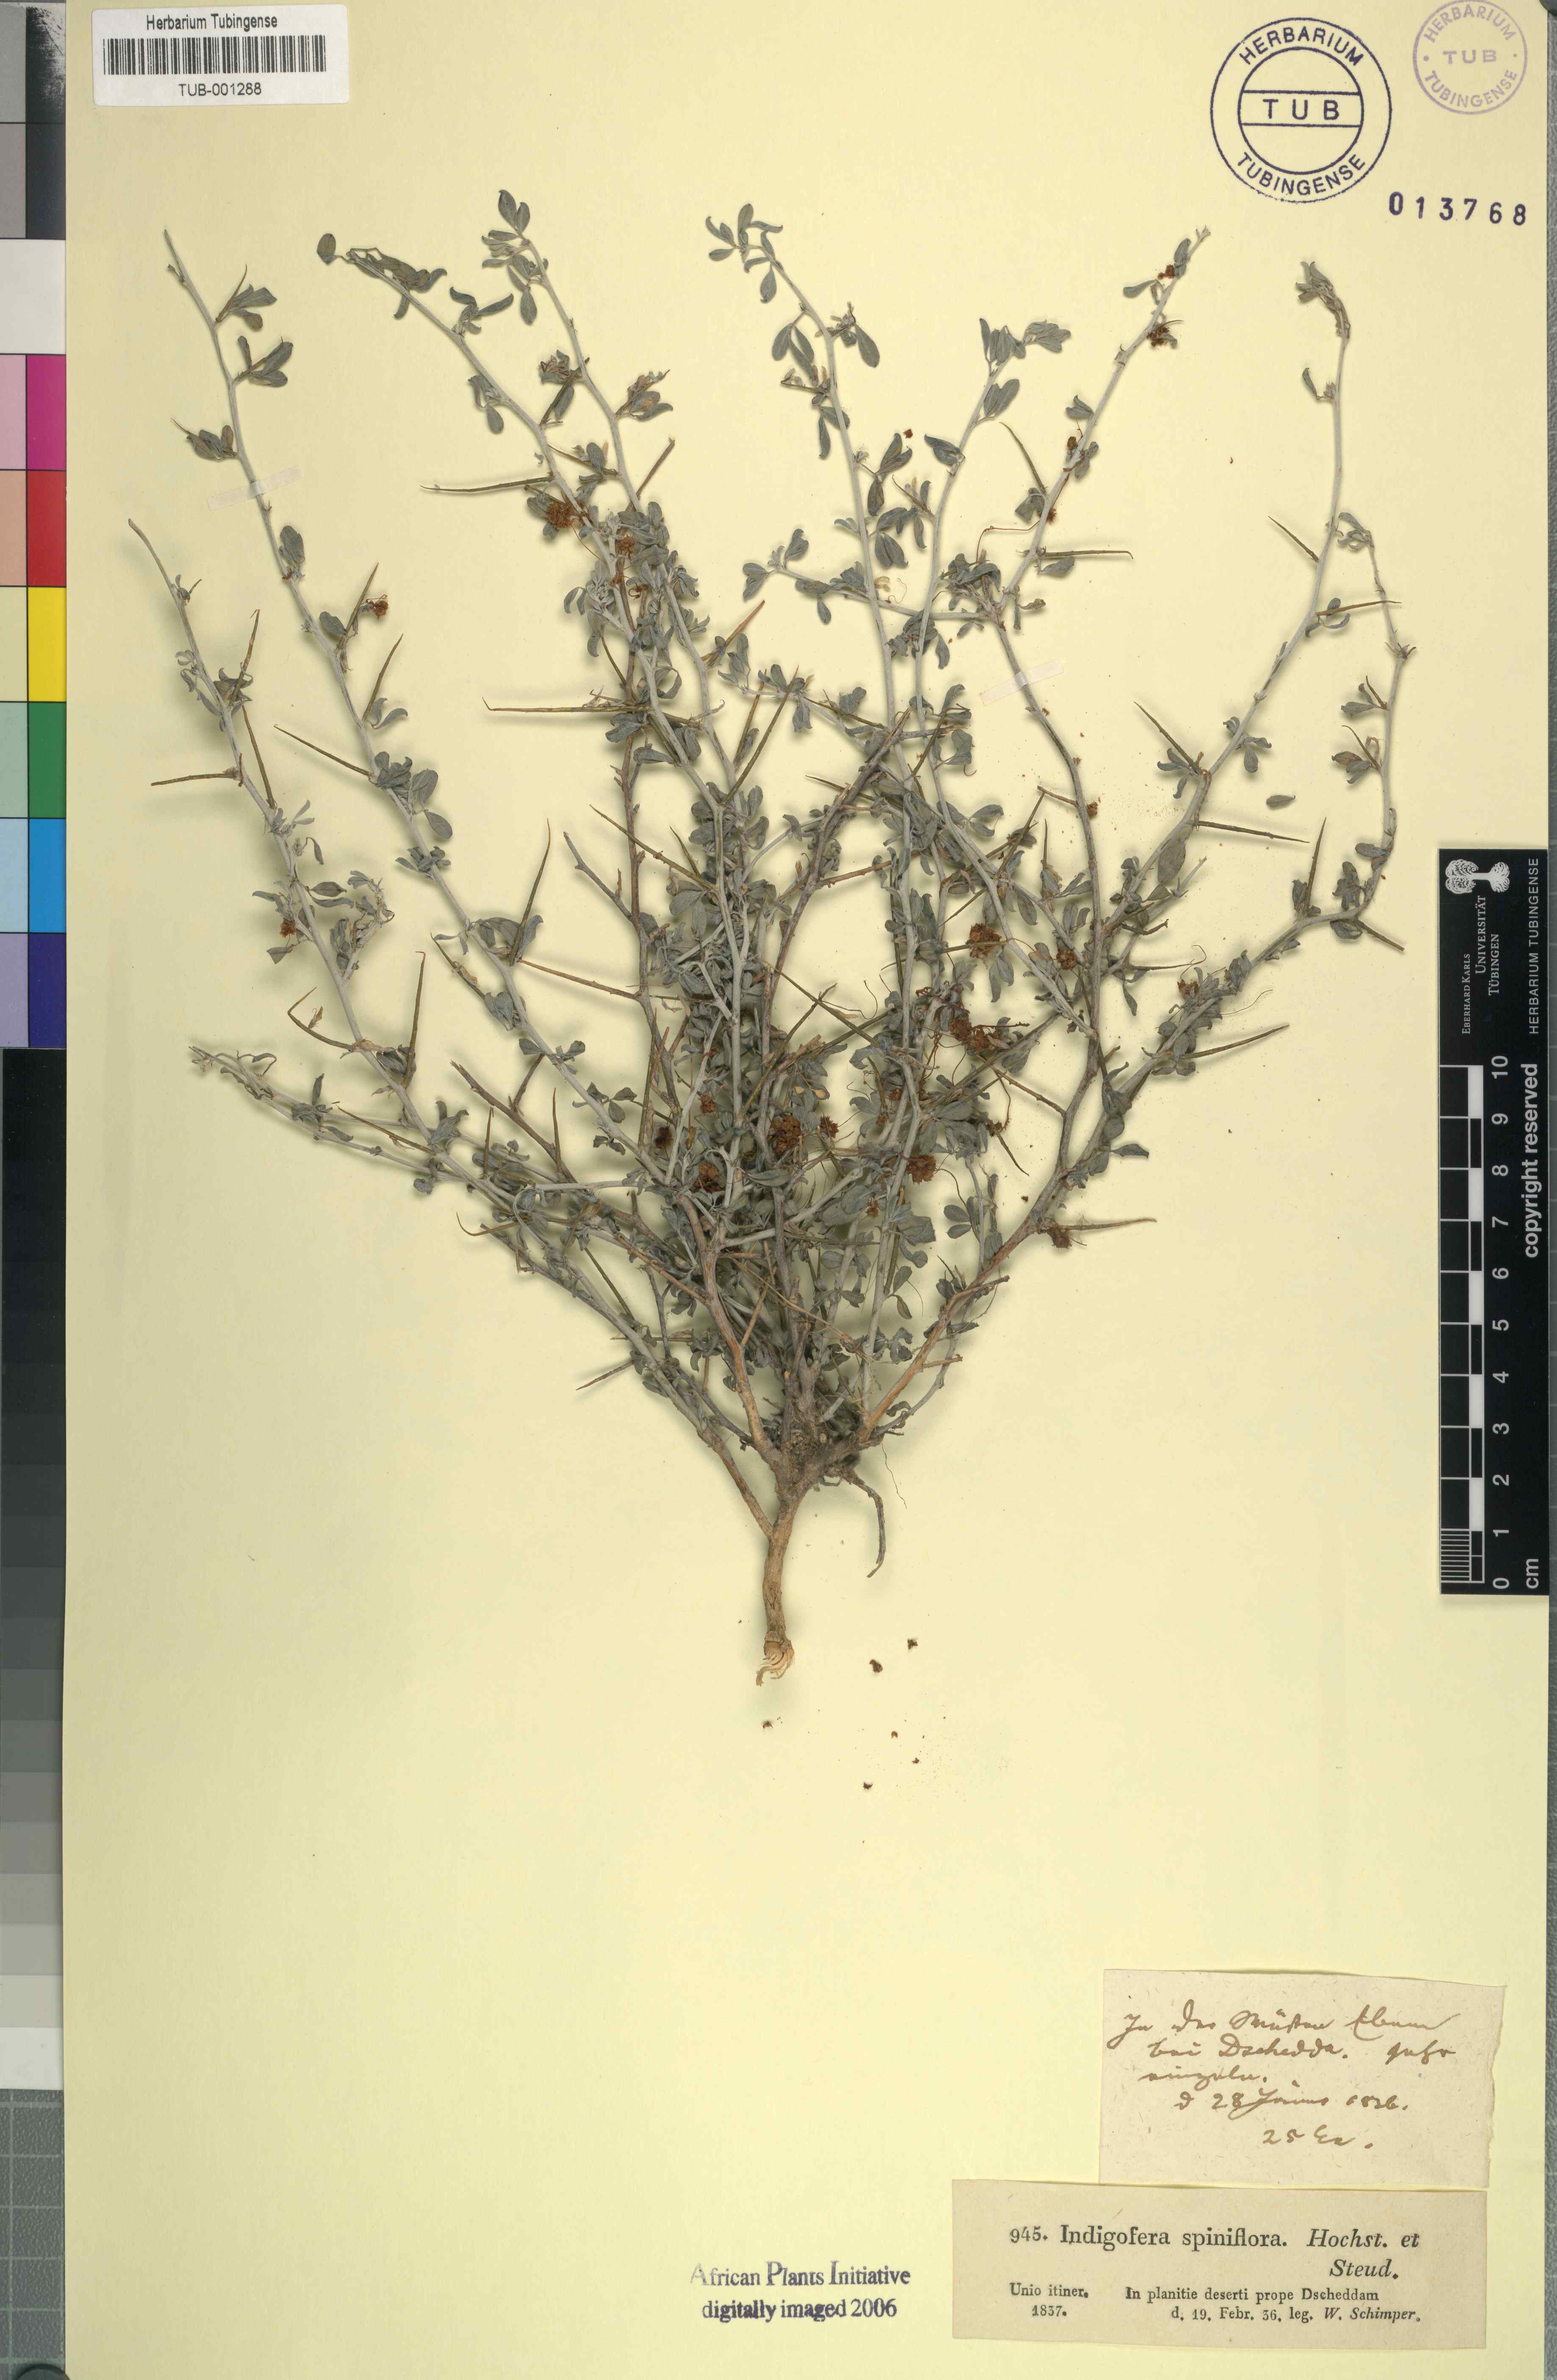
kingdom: Plantae
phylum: Tracheophyta
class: Magnoliopsida
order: Fabales
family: Fabaceae
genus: Indigofera
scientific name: Indigofera spiniflora
